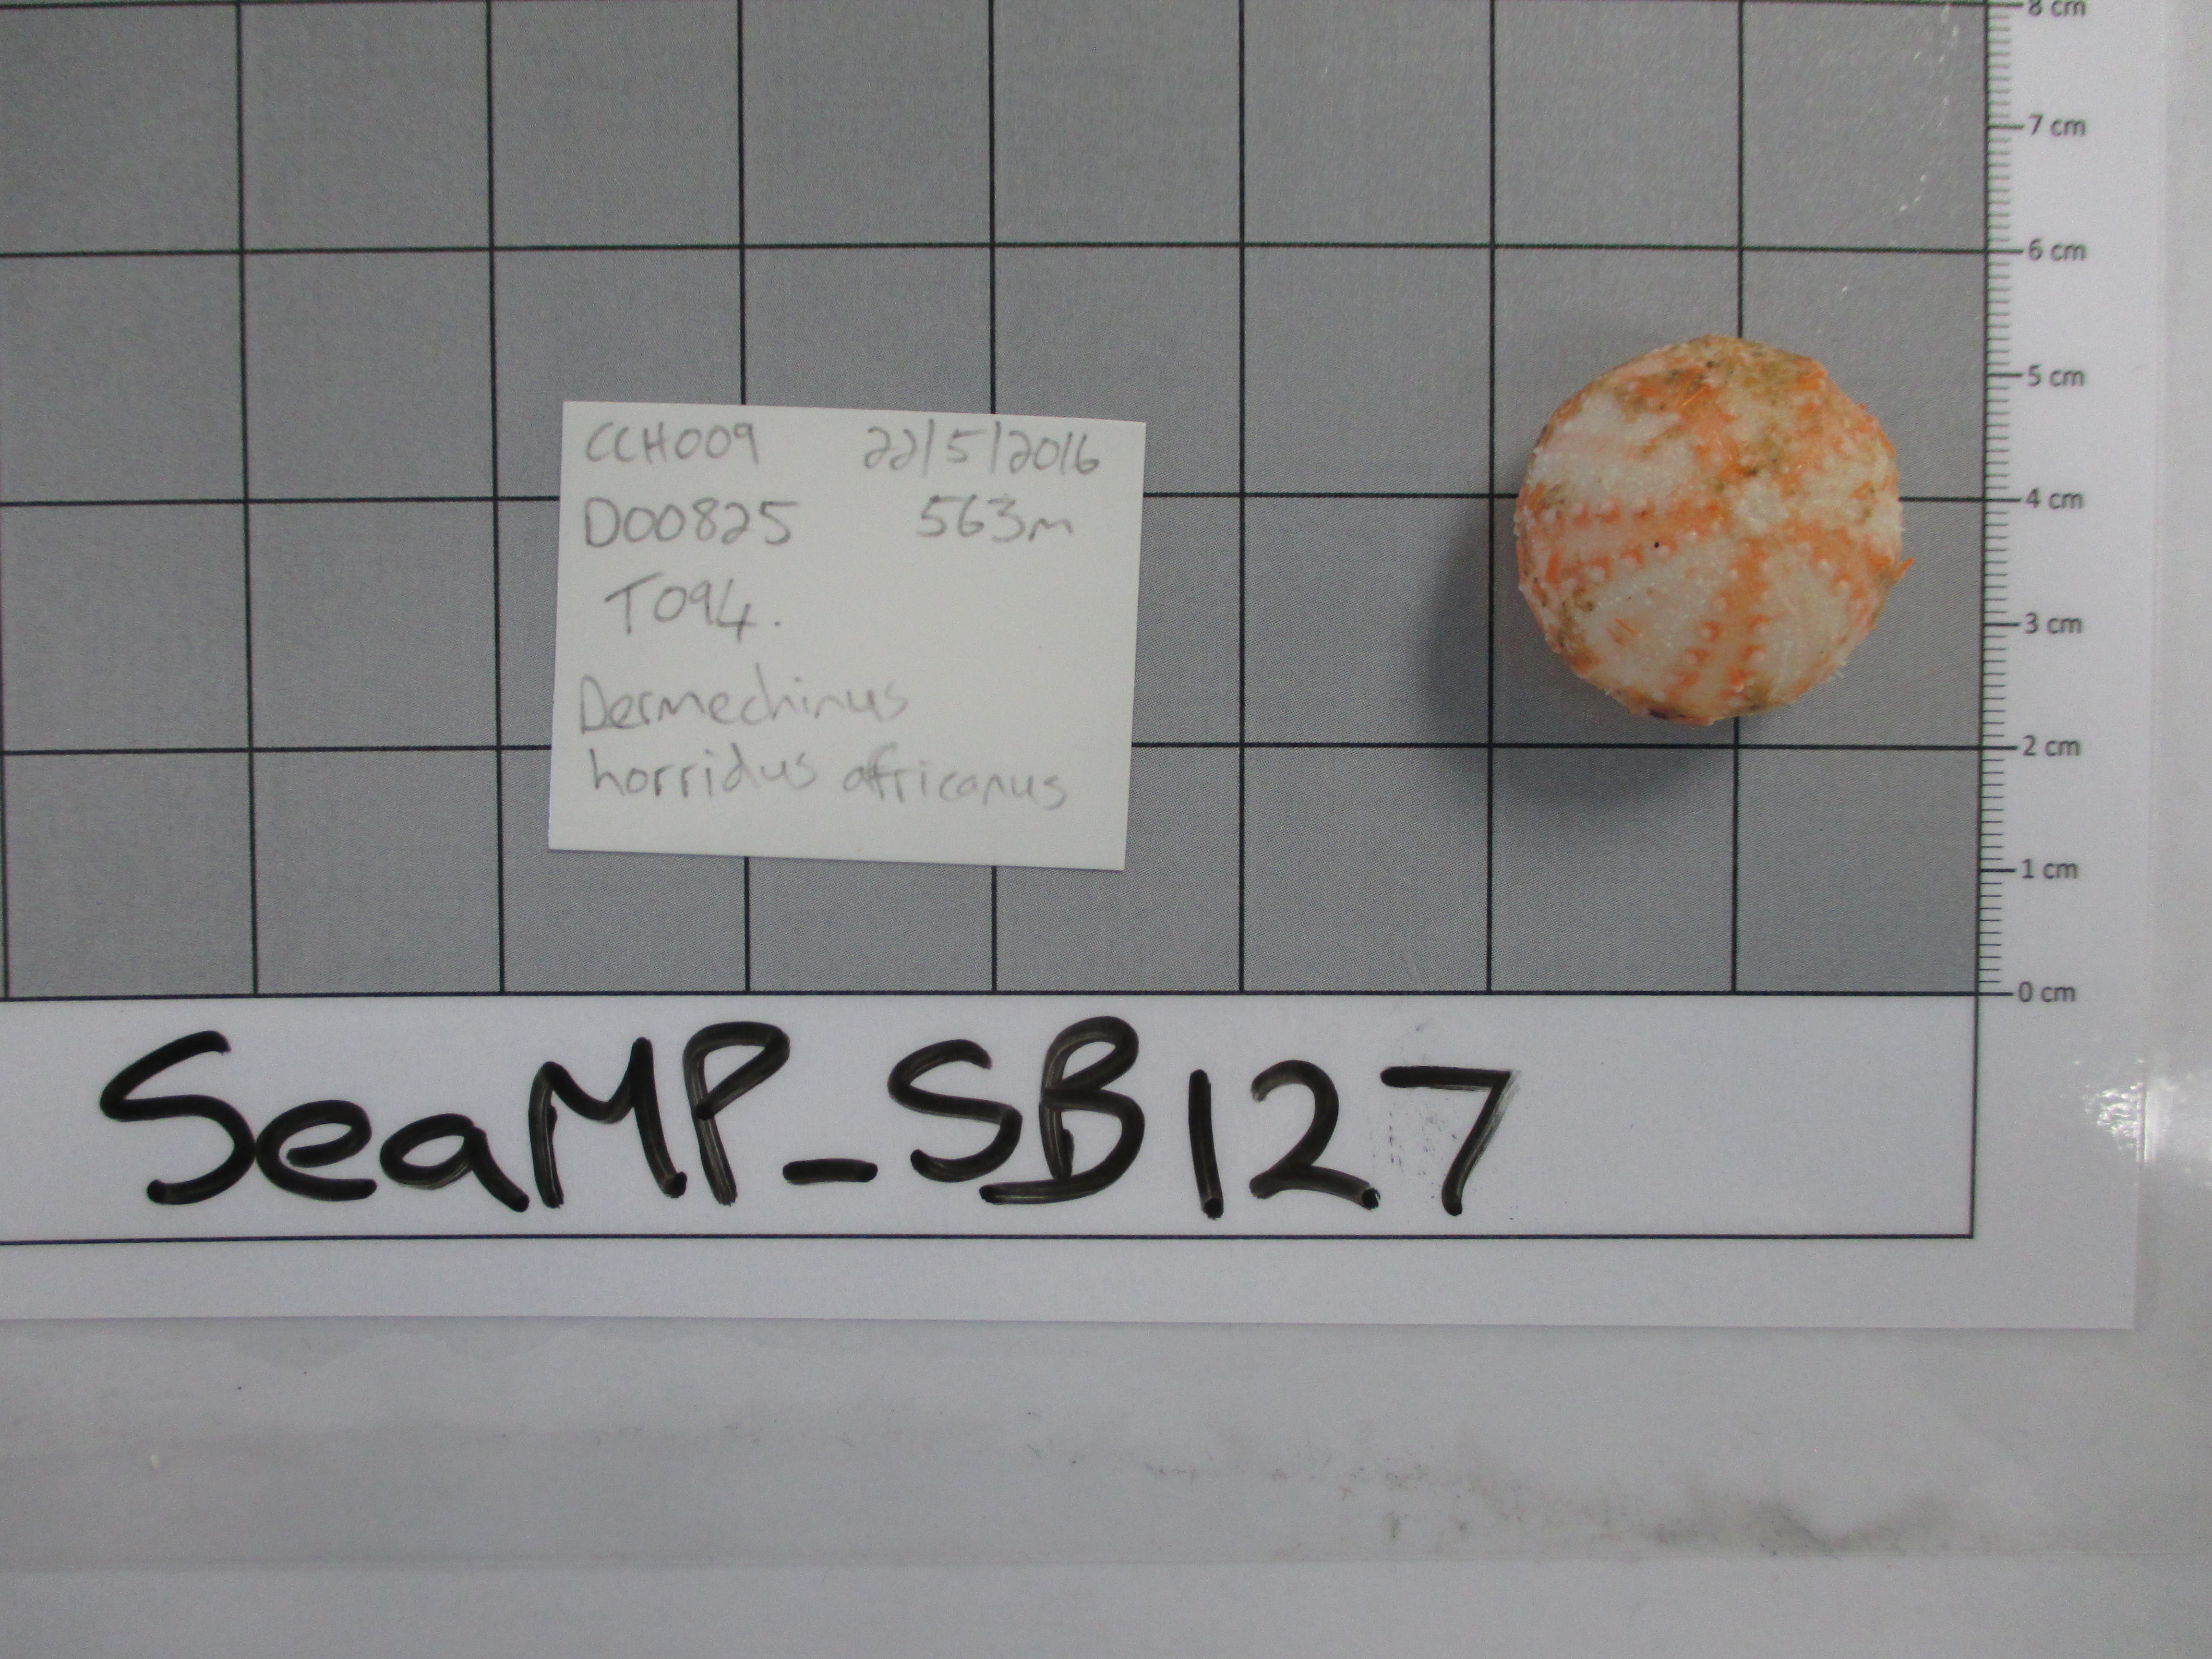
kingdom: Animalia
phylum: Echinodermata
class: Echinoidea
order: Camarodonta
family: Echinidae
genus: Dermechinus
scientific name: Dermechinus horridus
